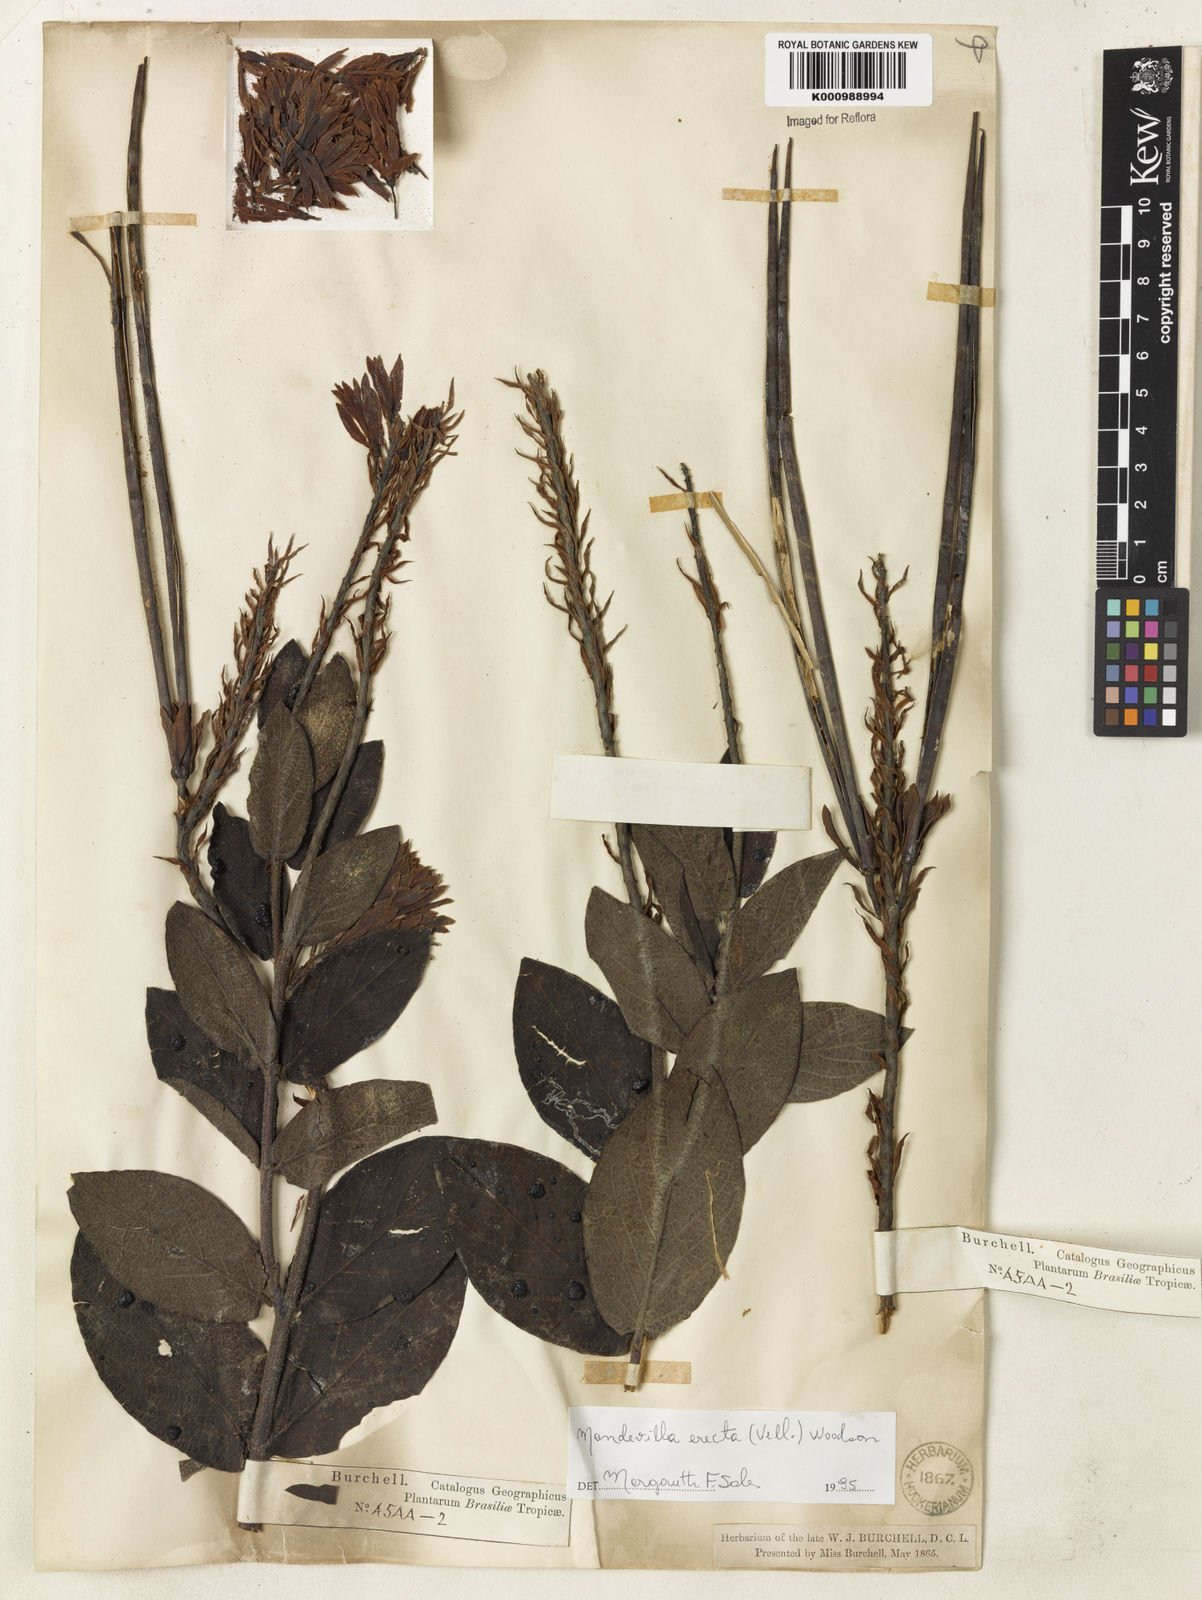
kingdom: Plantae
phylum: Tracheophyta
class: Magnoliopsida
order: Gentianales
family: Apocynaceae
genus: Mandevilla
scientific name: Mandevilla emarginata
